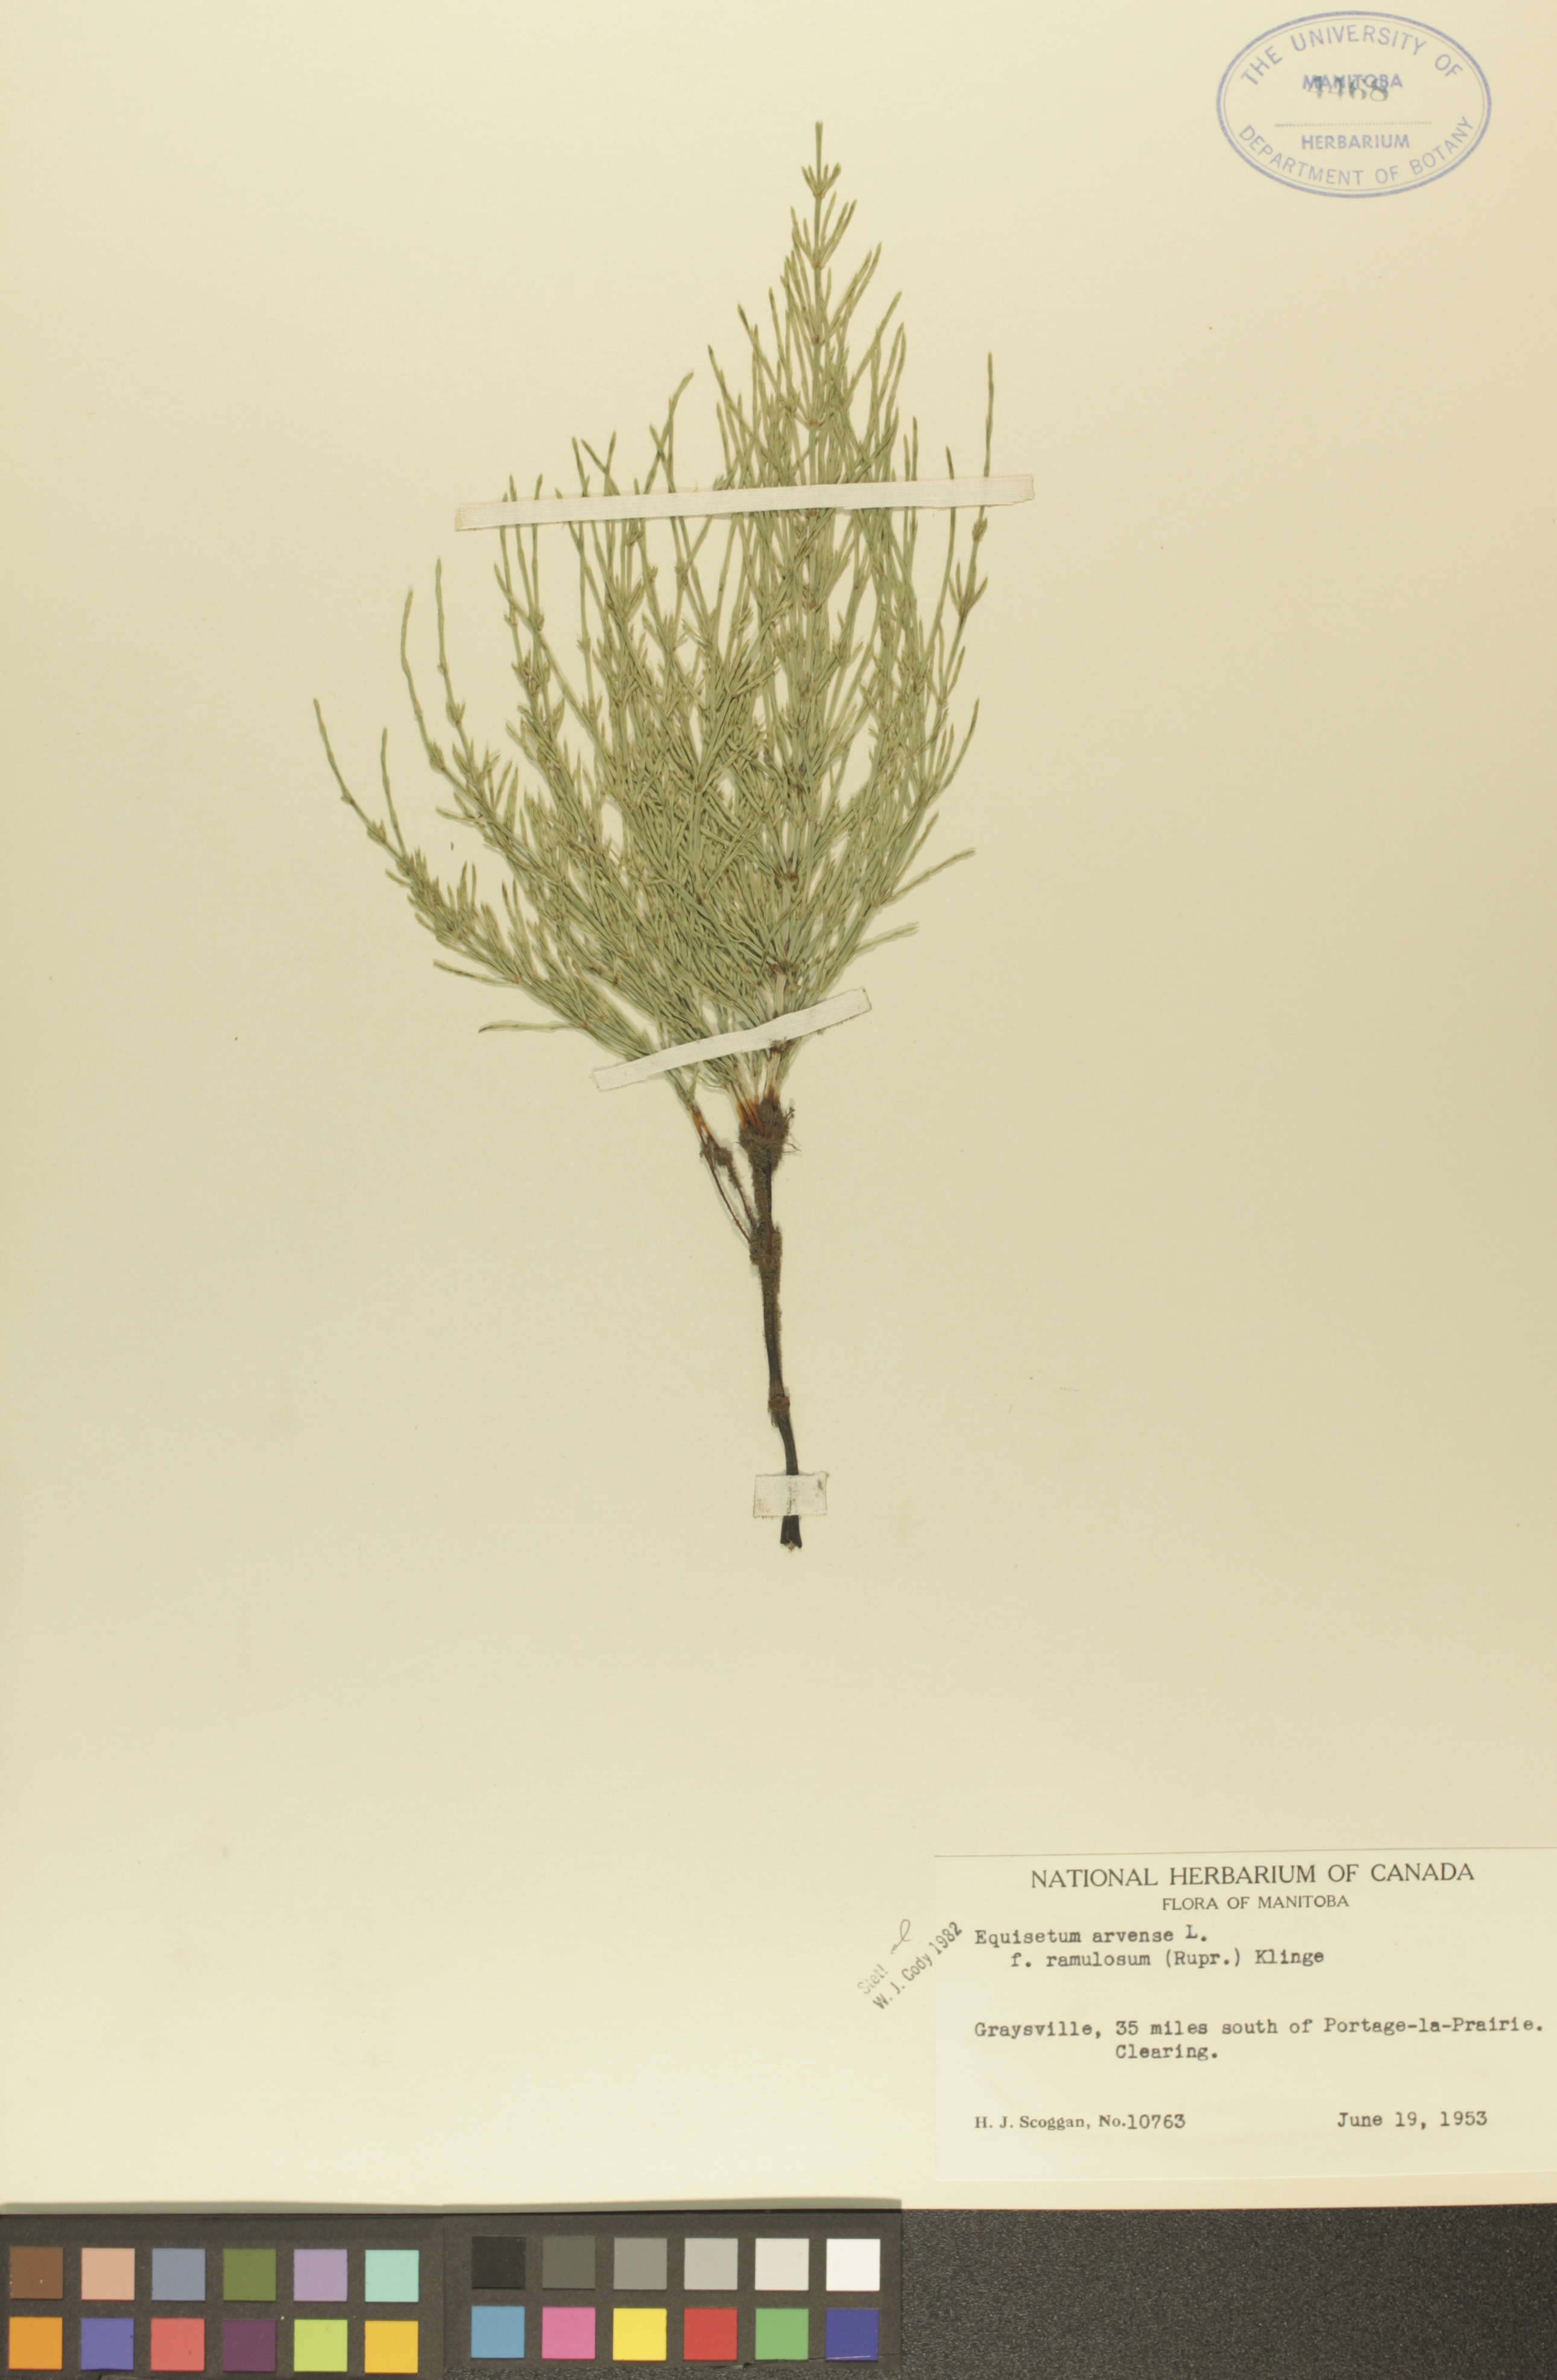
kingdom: Plantae
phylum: Tracheophyta
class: Polypodiopsida
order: Equisetales
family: Equisetaceae
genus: Equisetum
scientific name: Equisetum arvense
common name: Field horsetail
